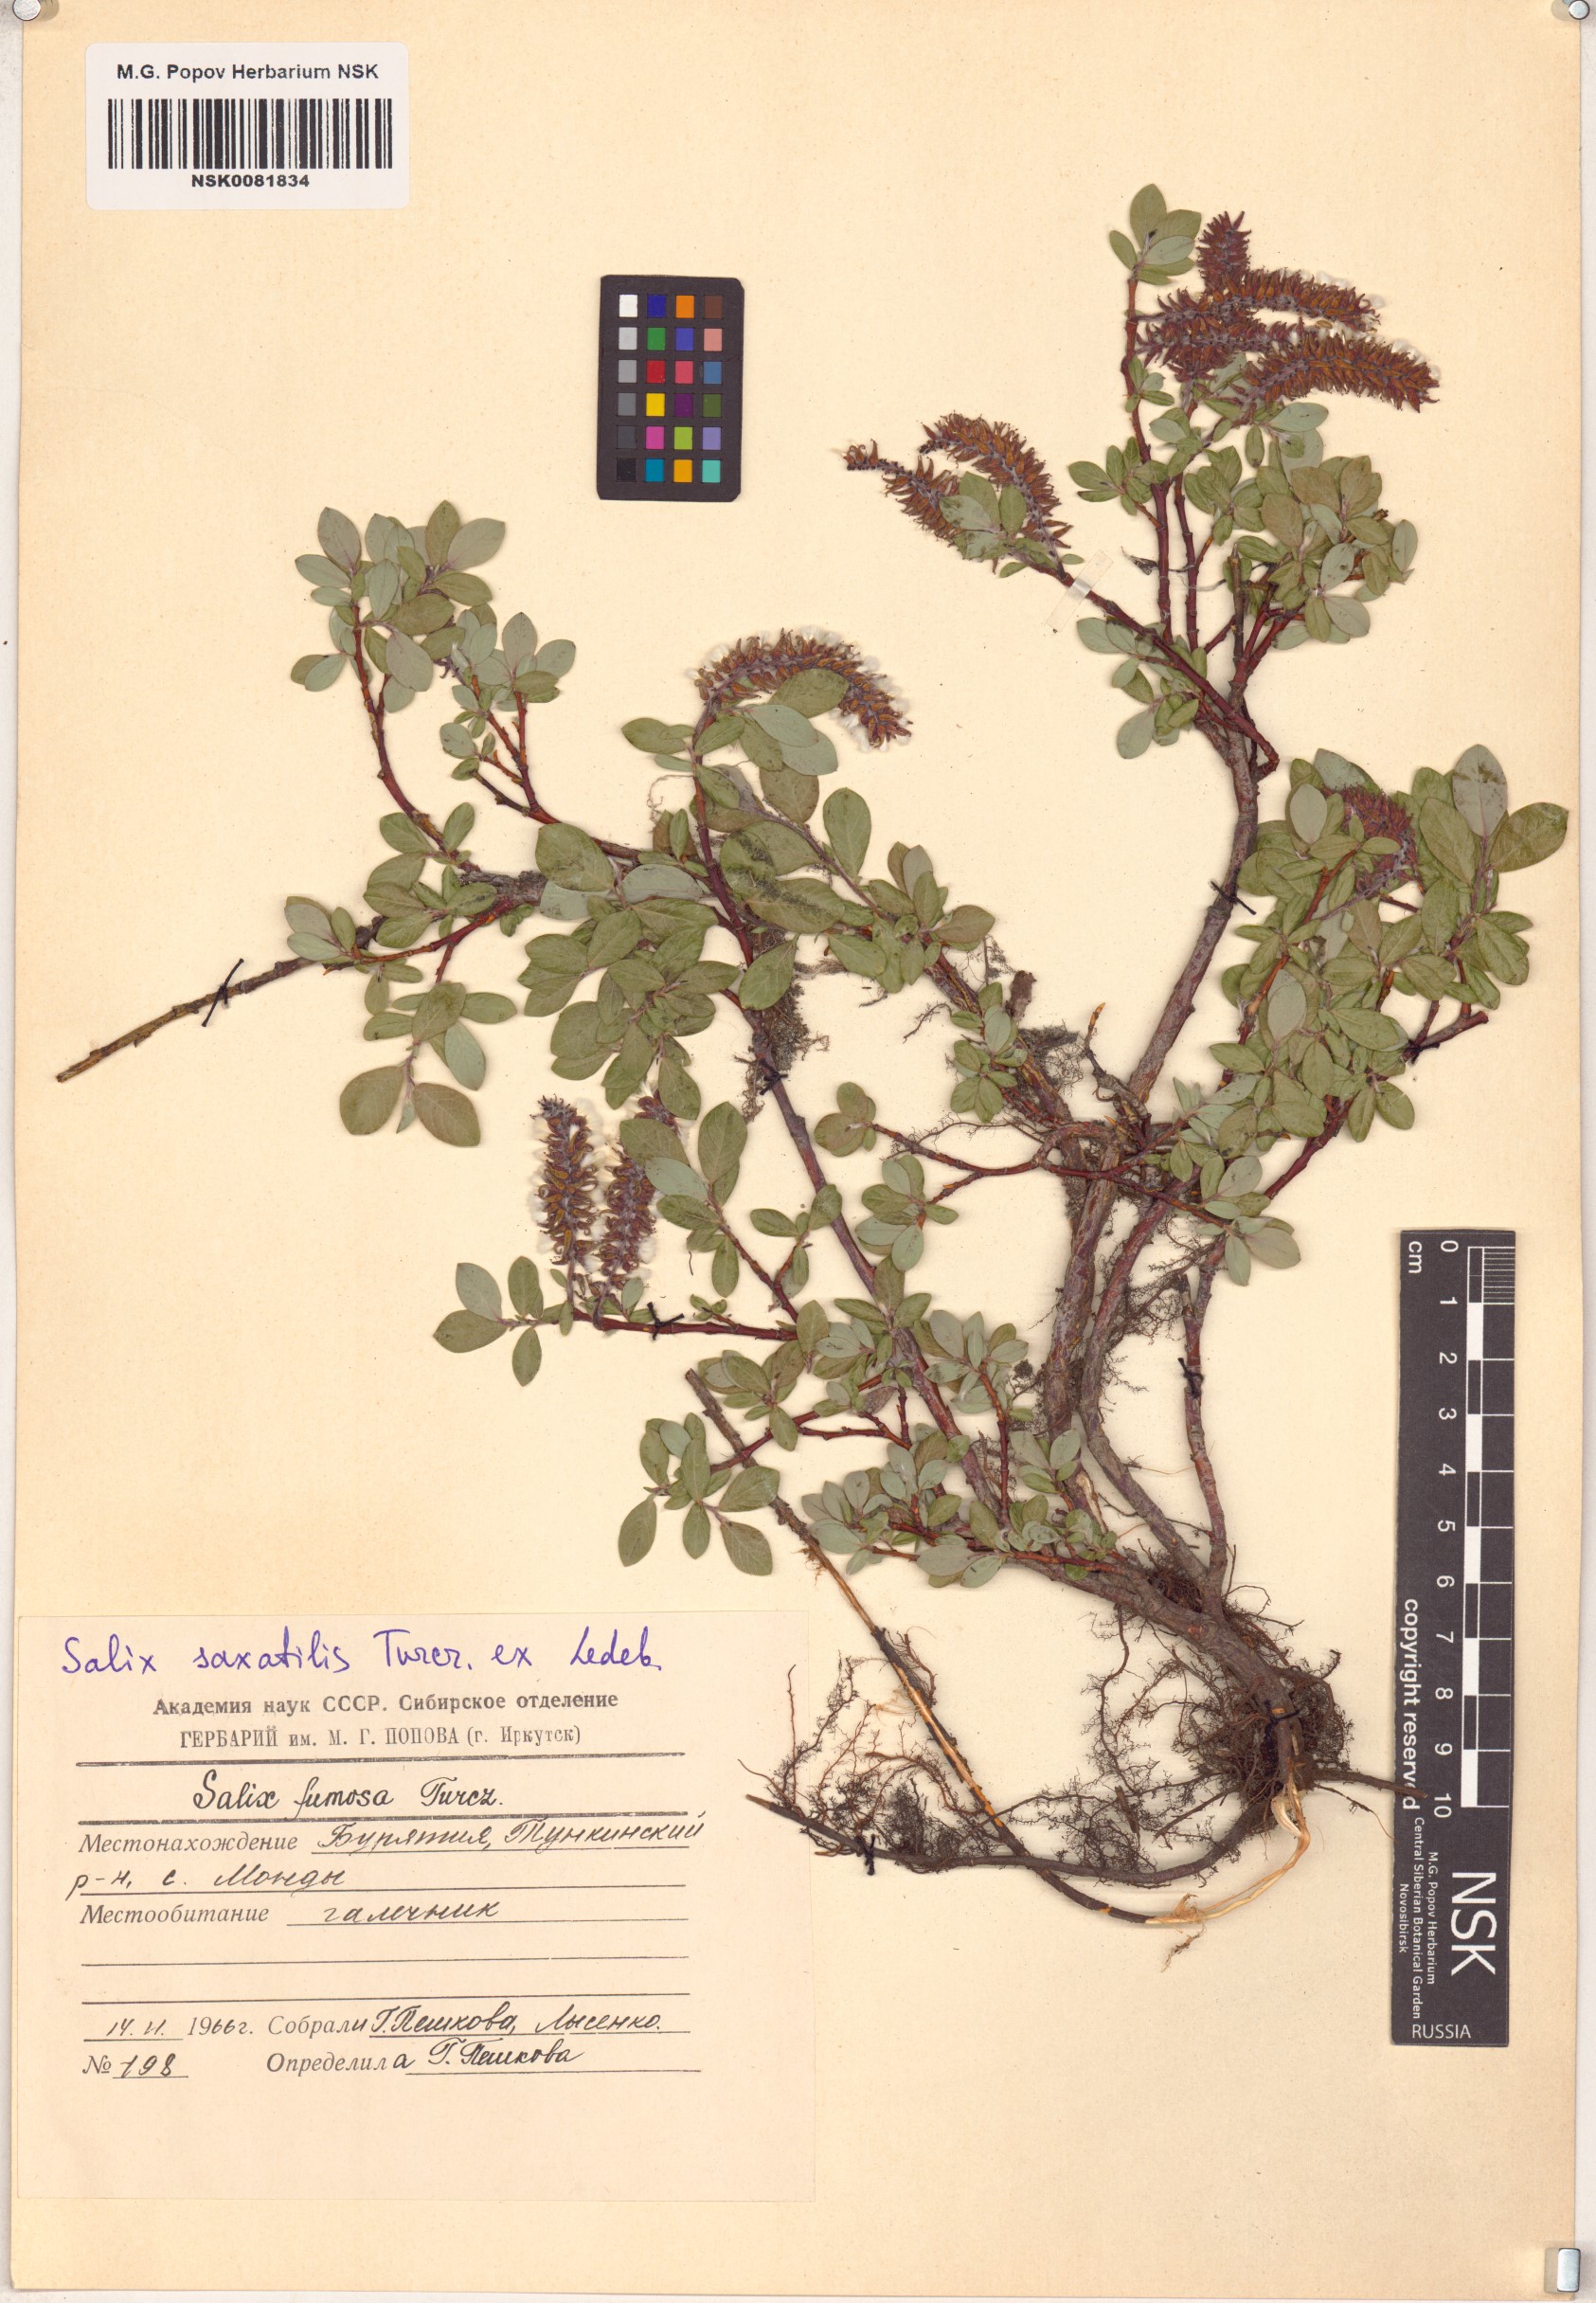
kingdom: Plantae
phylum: Tracheophyta
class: Magnoliopsida
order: Malpighiales
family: Salicaceae
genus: Salix
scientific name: Salix saxatilis
